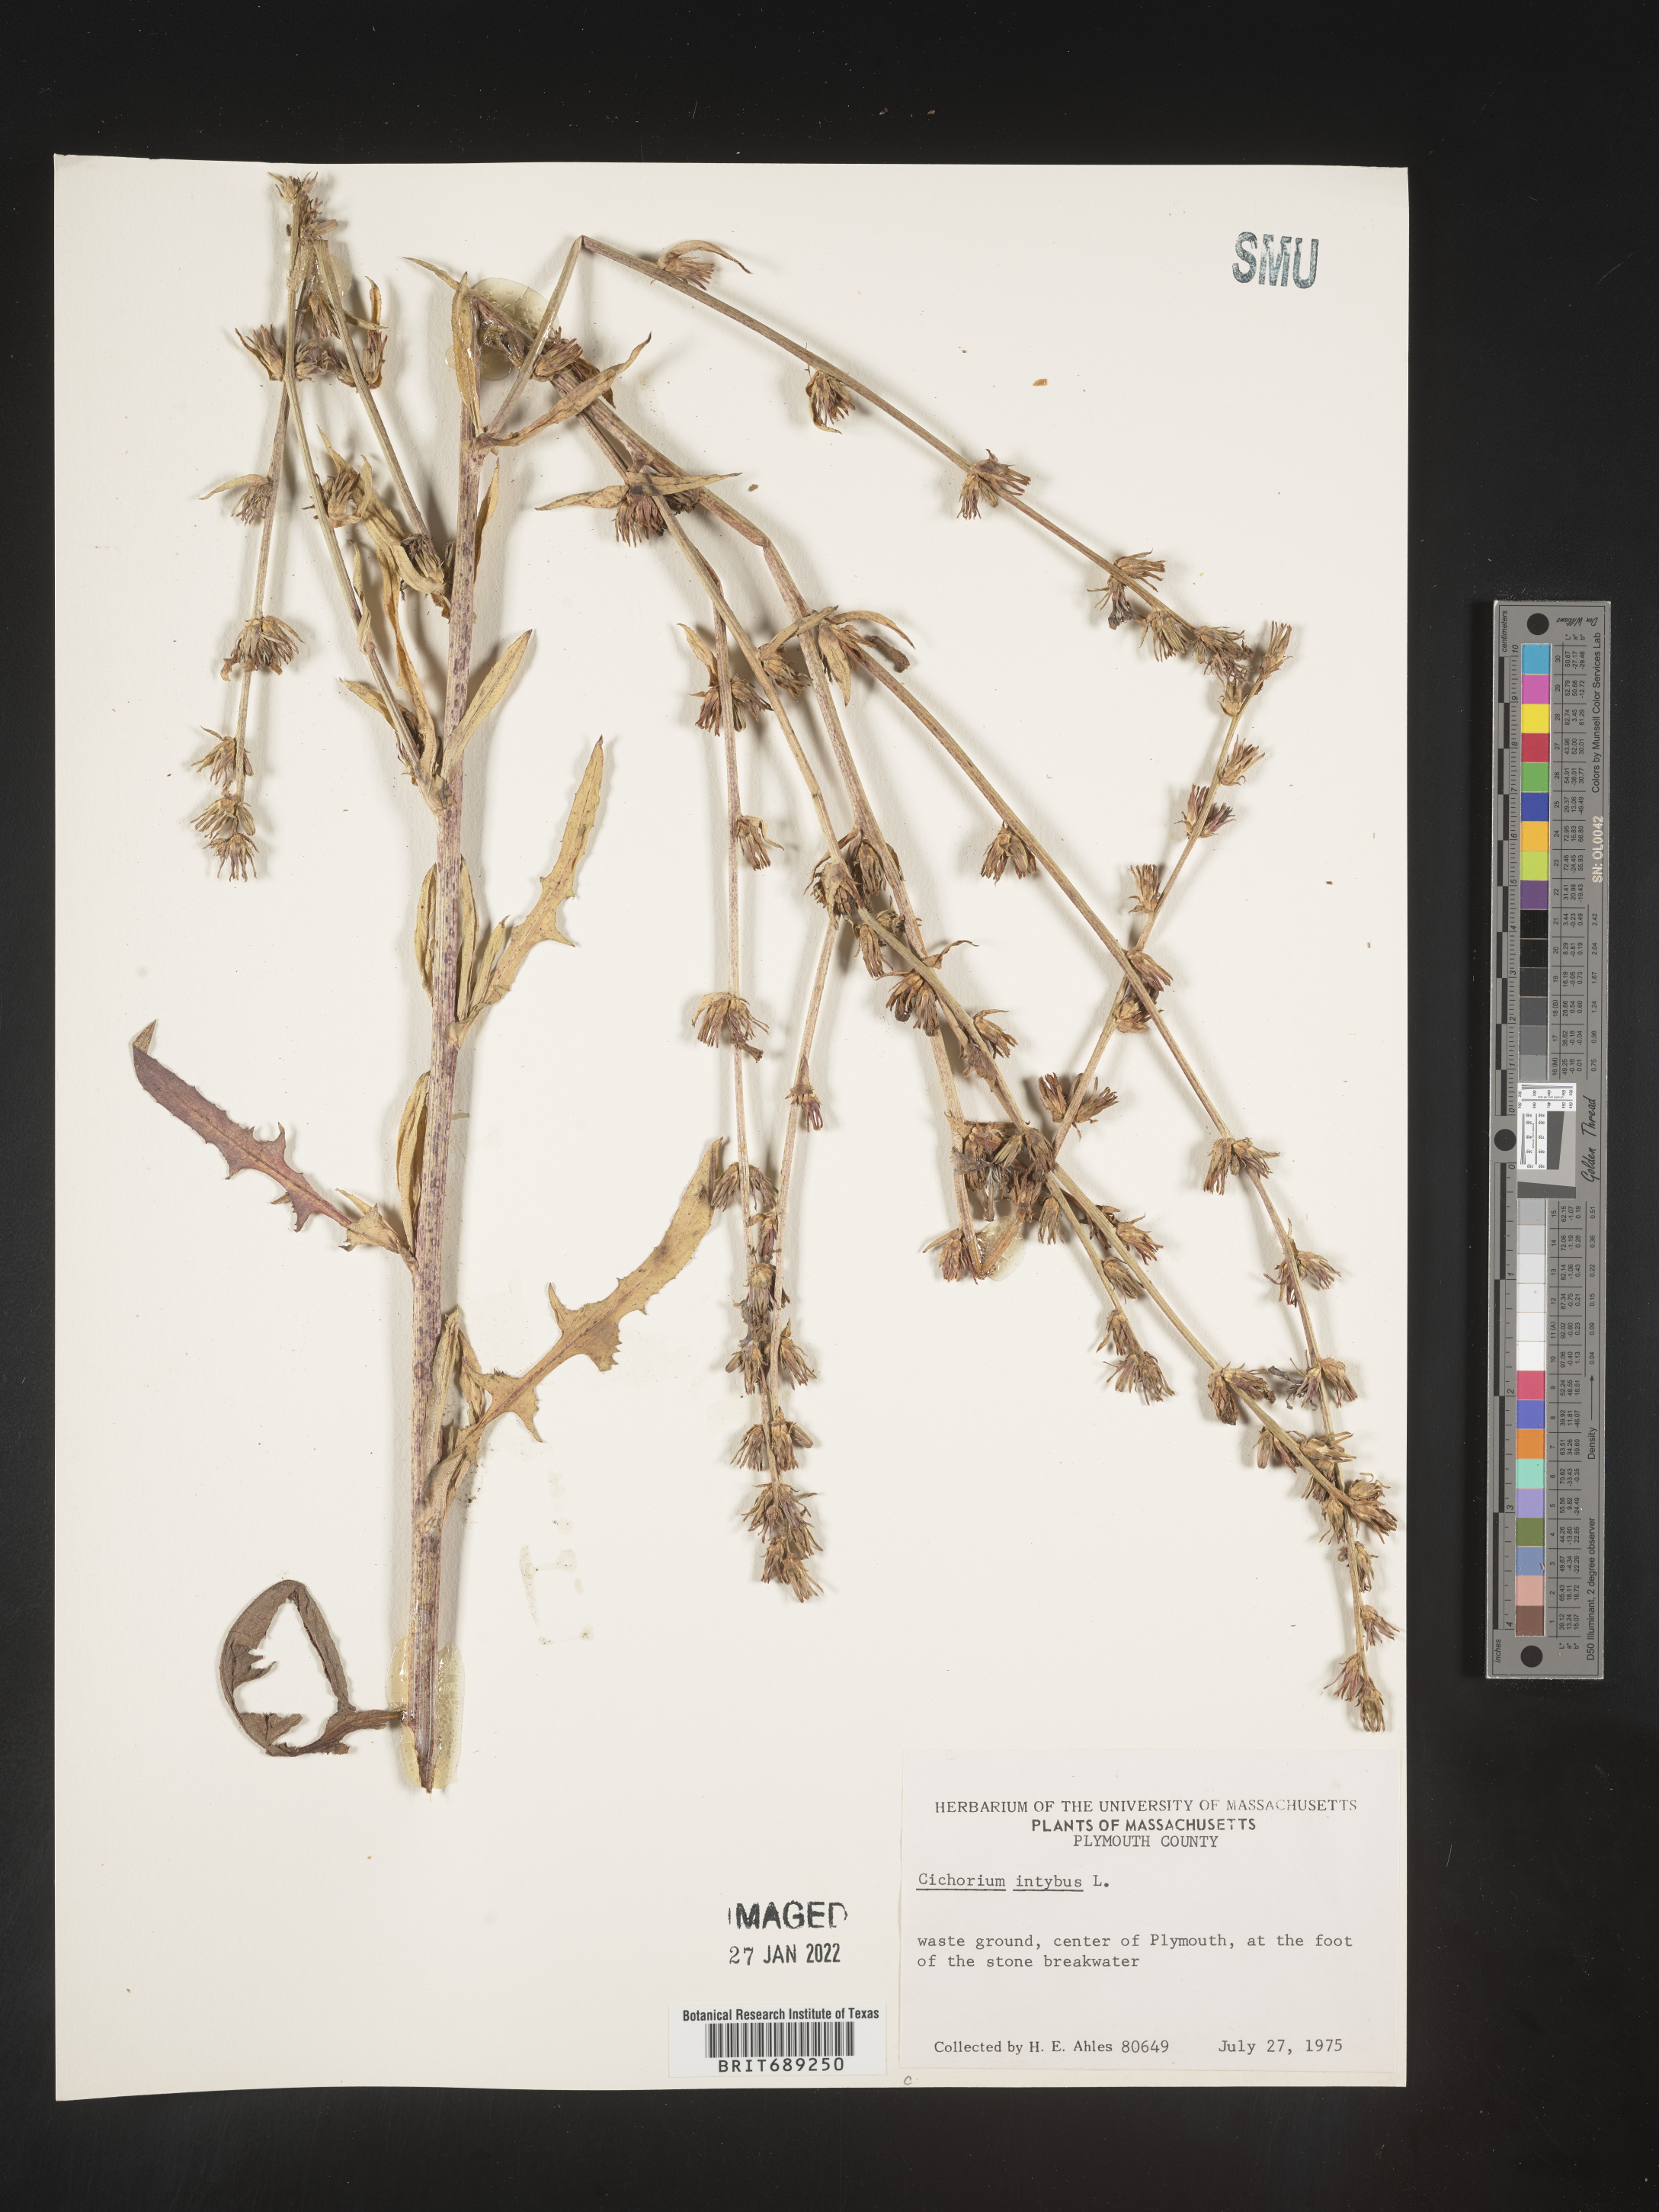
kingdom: Plantae
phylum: Tracheophyta
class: Magnoliopsida
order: Asterales
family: Asteraceae
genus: Cichorium
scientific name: Cichorium intybus
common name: Chicory
